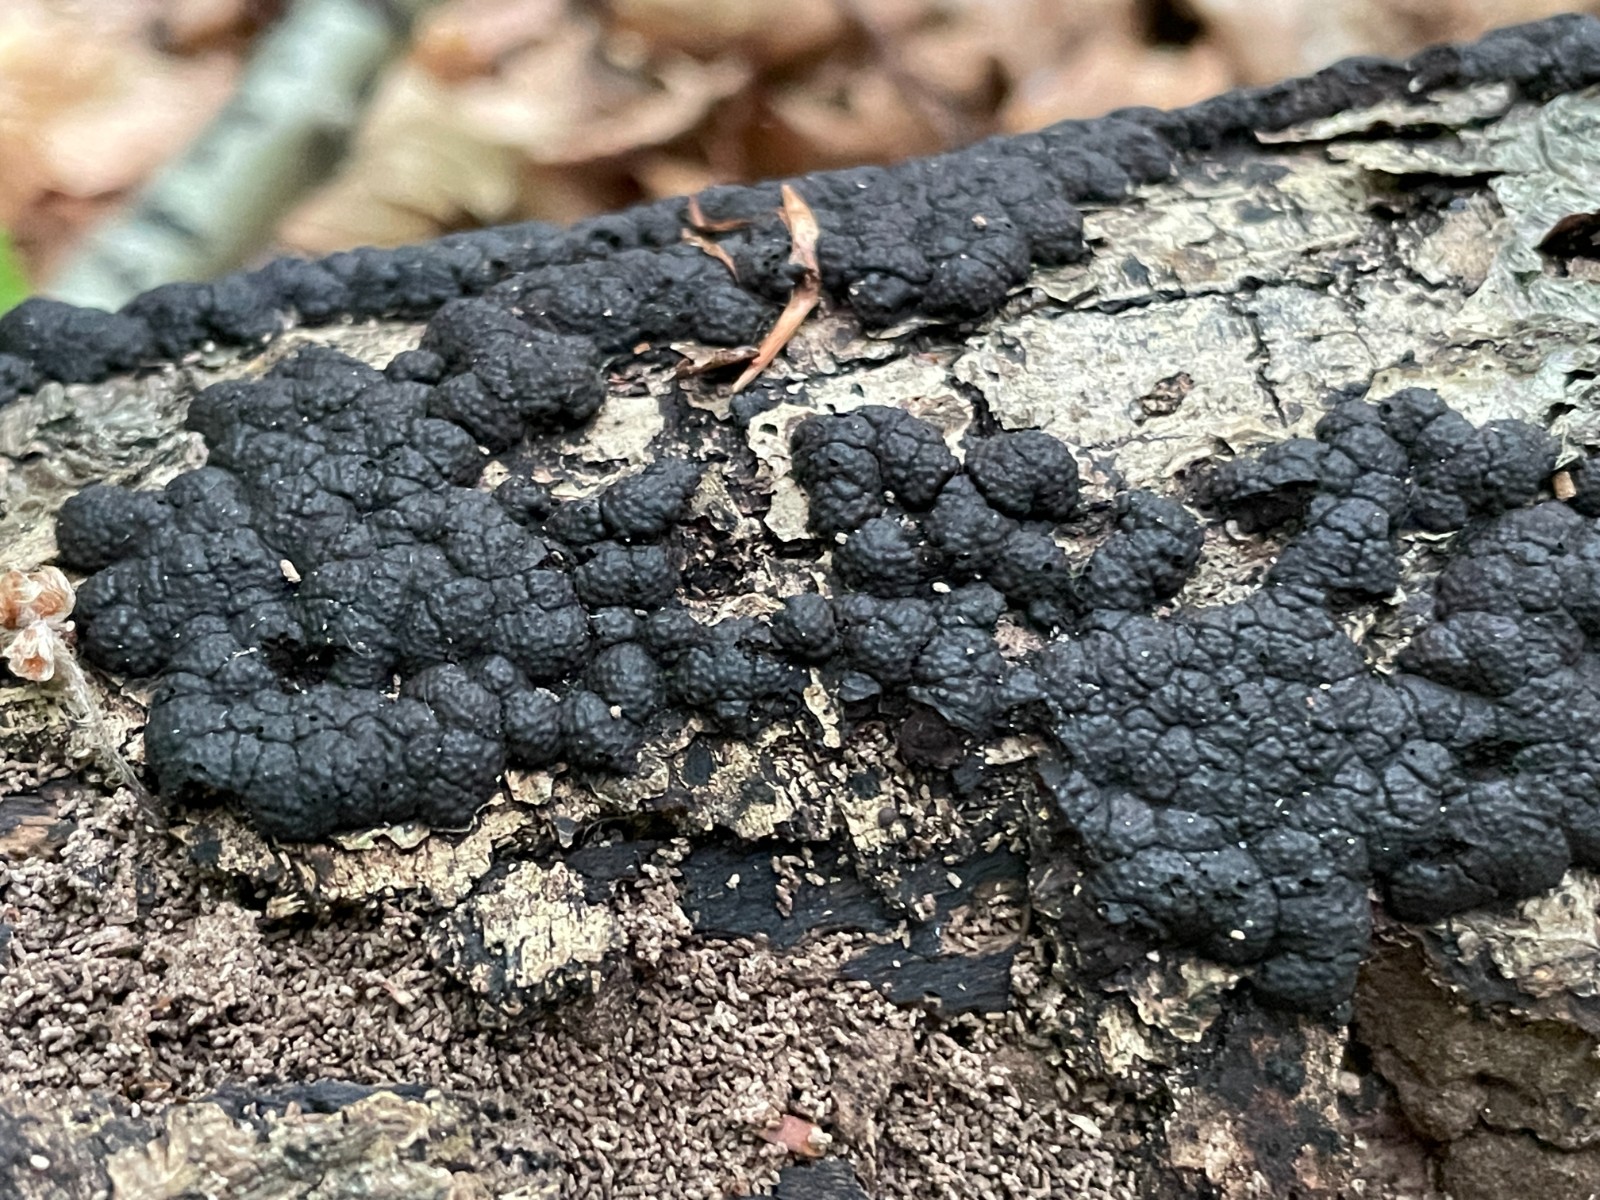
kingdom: Fungi
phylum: Ascomycota
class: Sordariomycetes
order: Xylariales
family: Hypoxylaceae
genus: Jackrogersella
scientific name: Jackrogersella cohaerens
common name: sammenflydende kulbær
